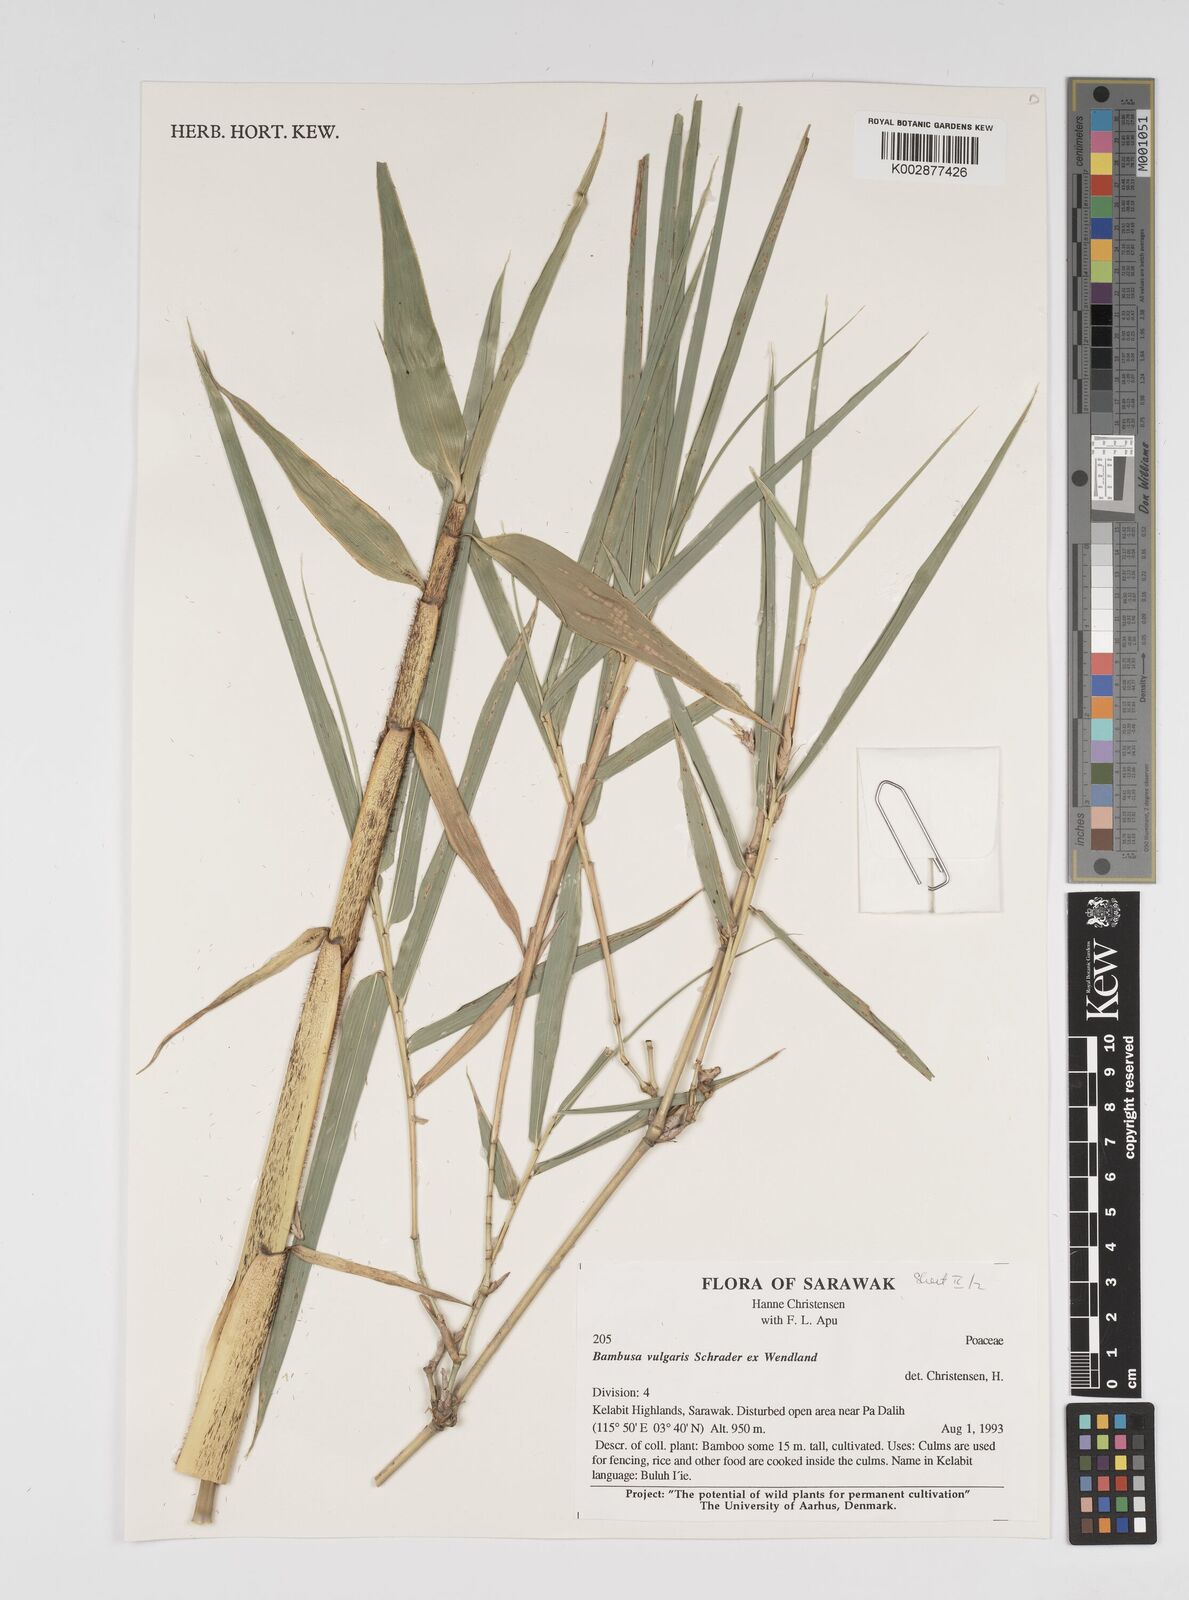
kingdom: Plantae
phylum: Tracheophyta
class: Liliopsida
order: Poales
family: Poaceae
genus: Bambusa
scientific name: Bambusa vulgaris
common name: Common bamboo
